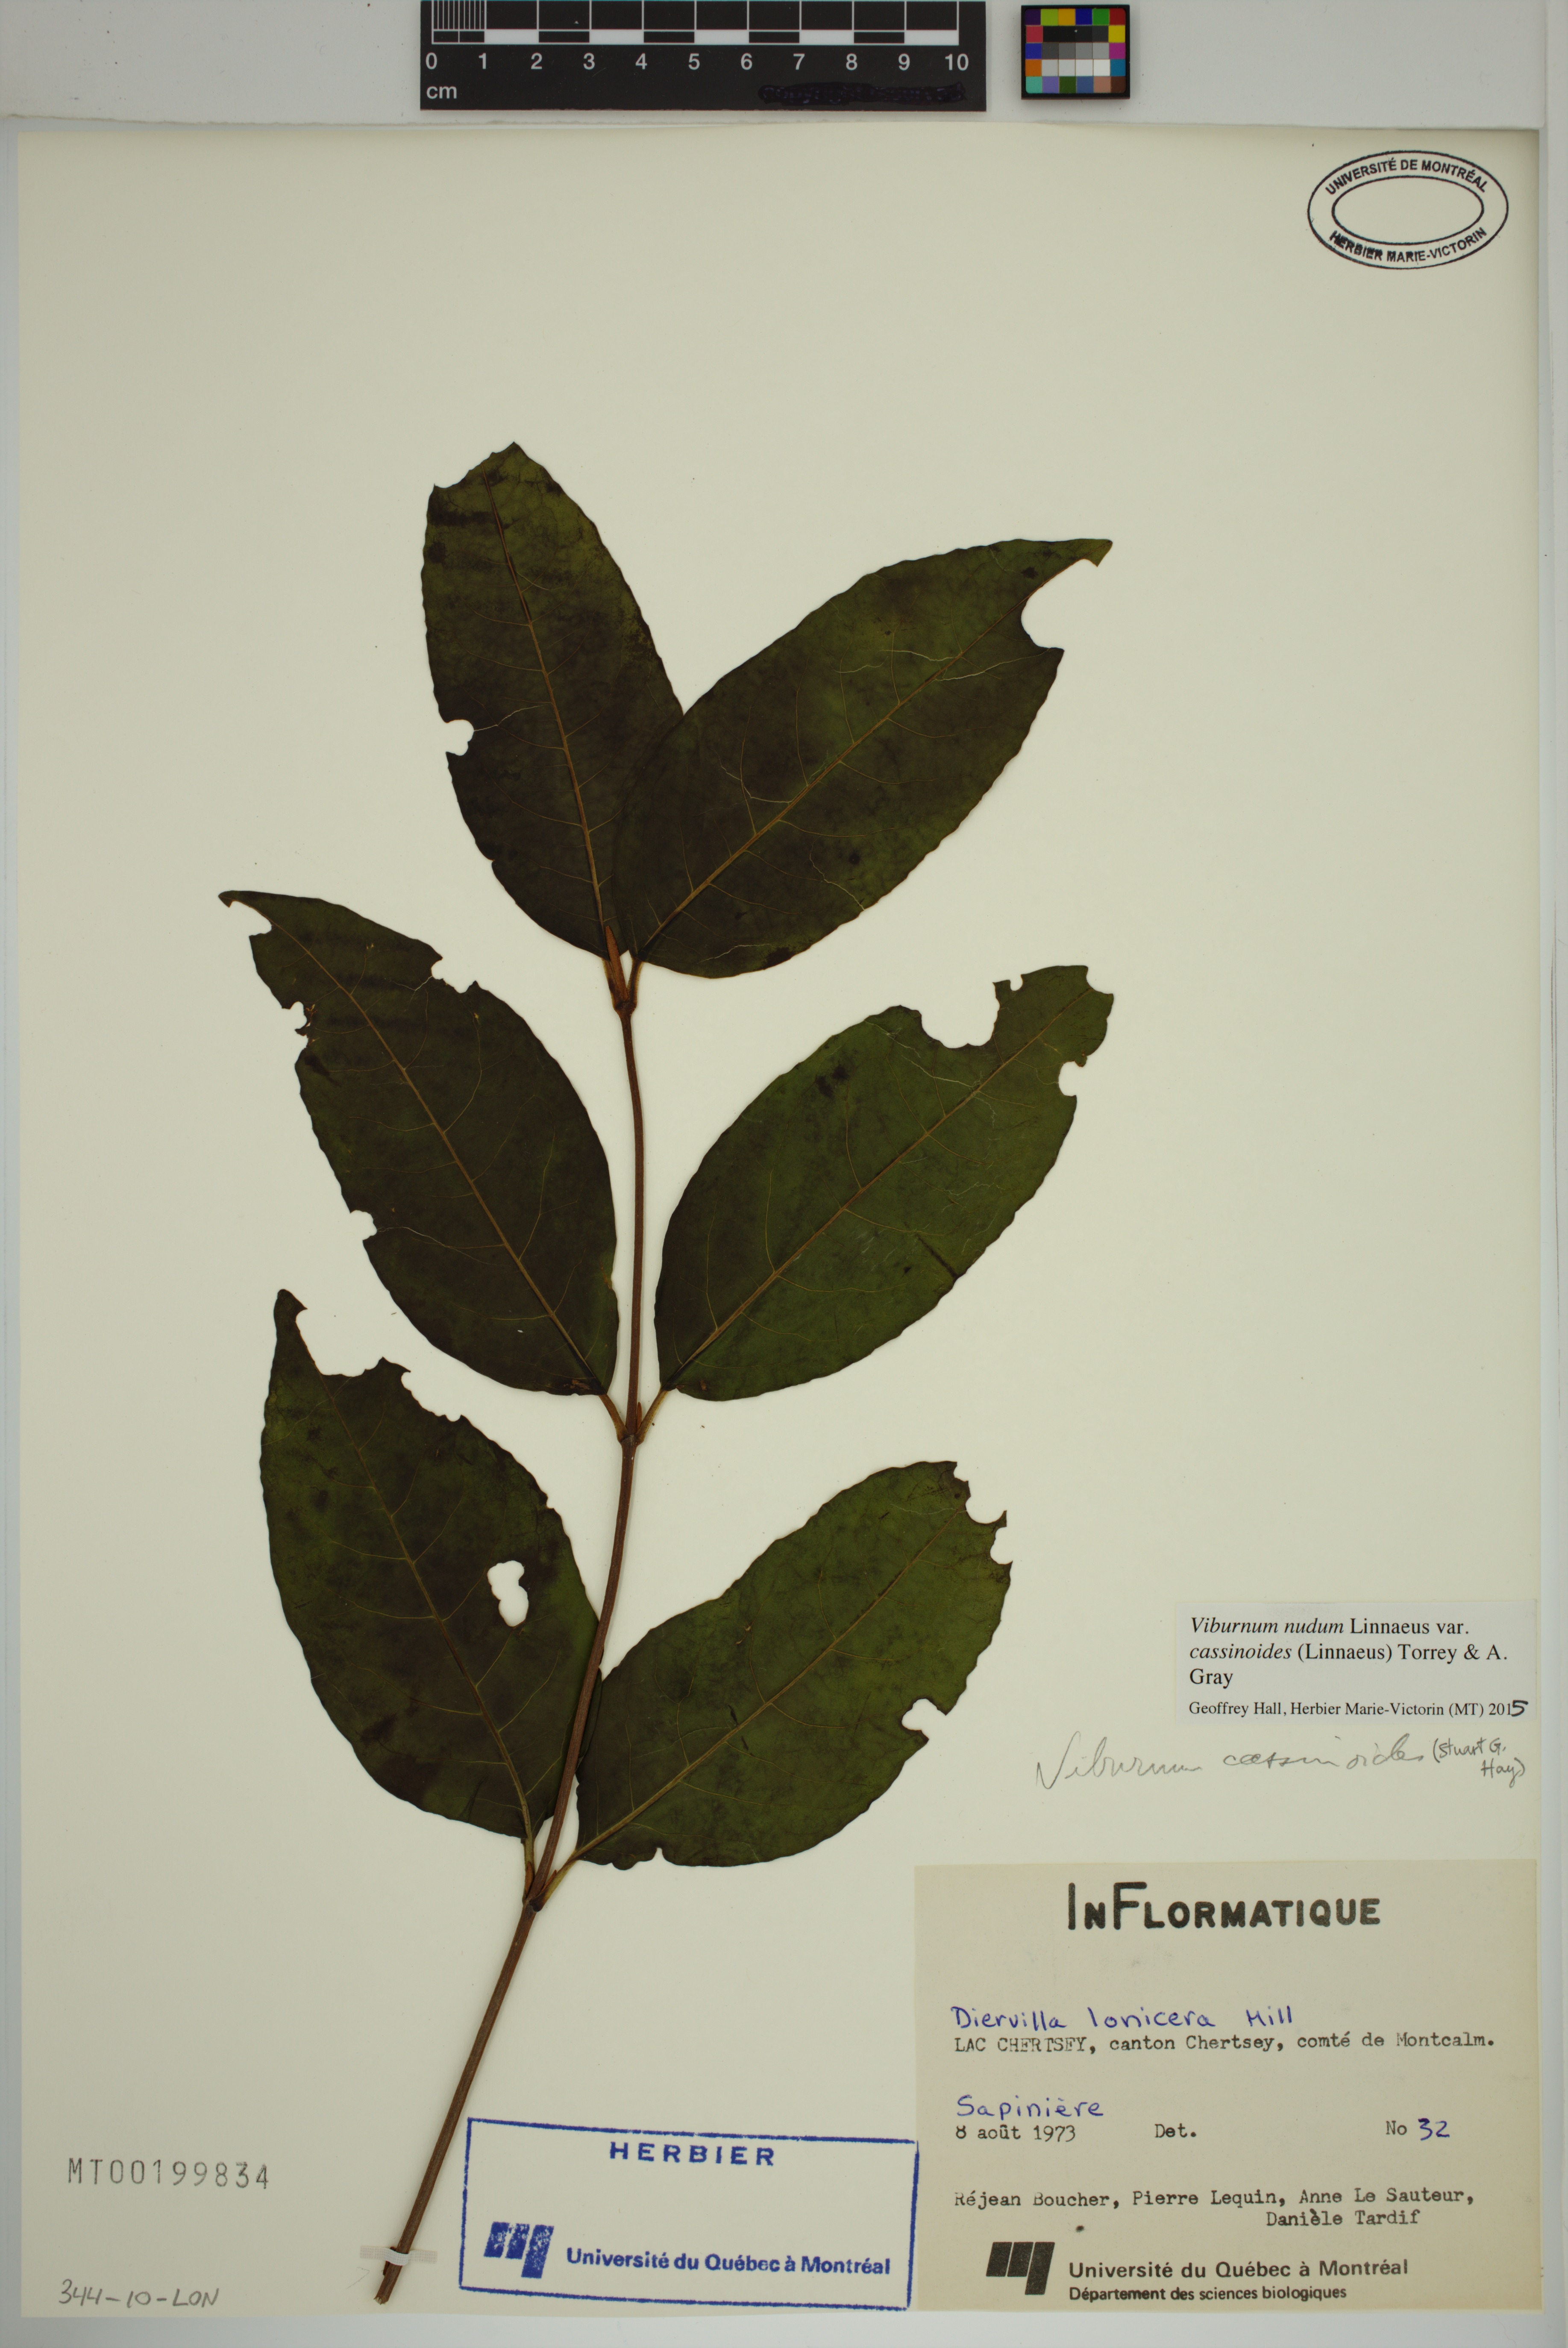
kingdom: Plantae
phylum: Tracheophyta
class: Magnoliopsida
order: Dipsacales
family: Viburnaceae
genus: Viburnum
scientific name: Viburnum cassinoides
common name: Swamp haw
